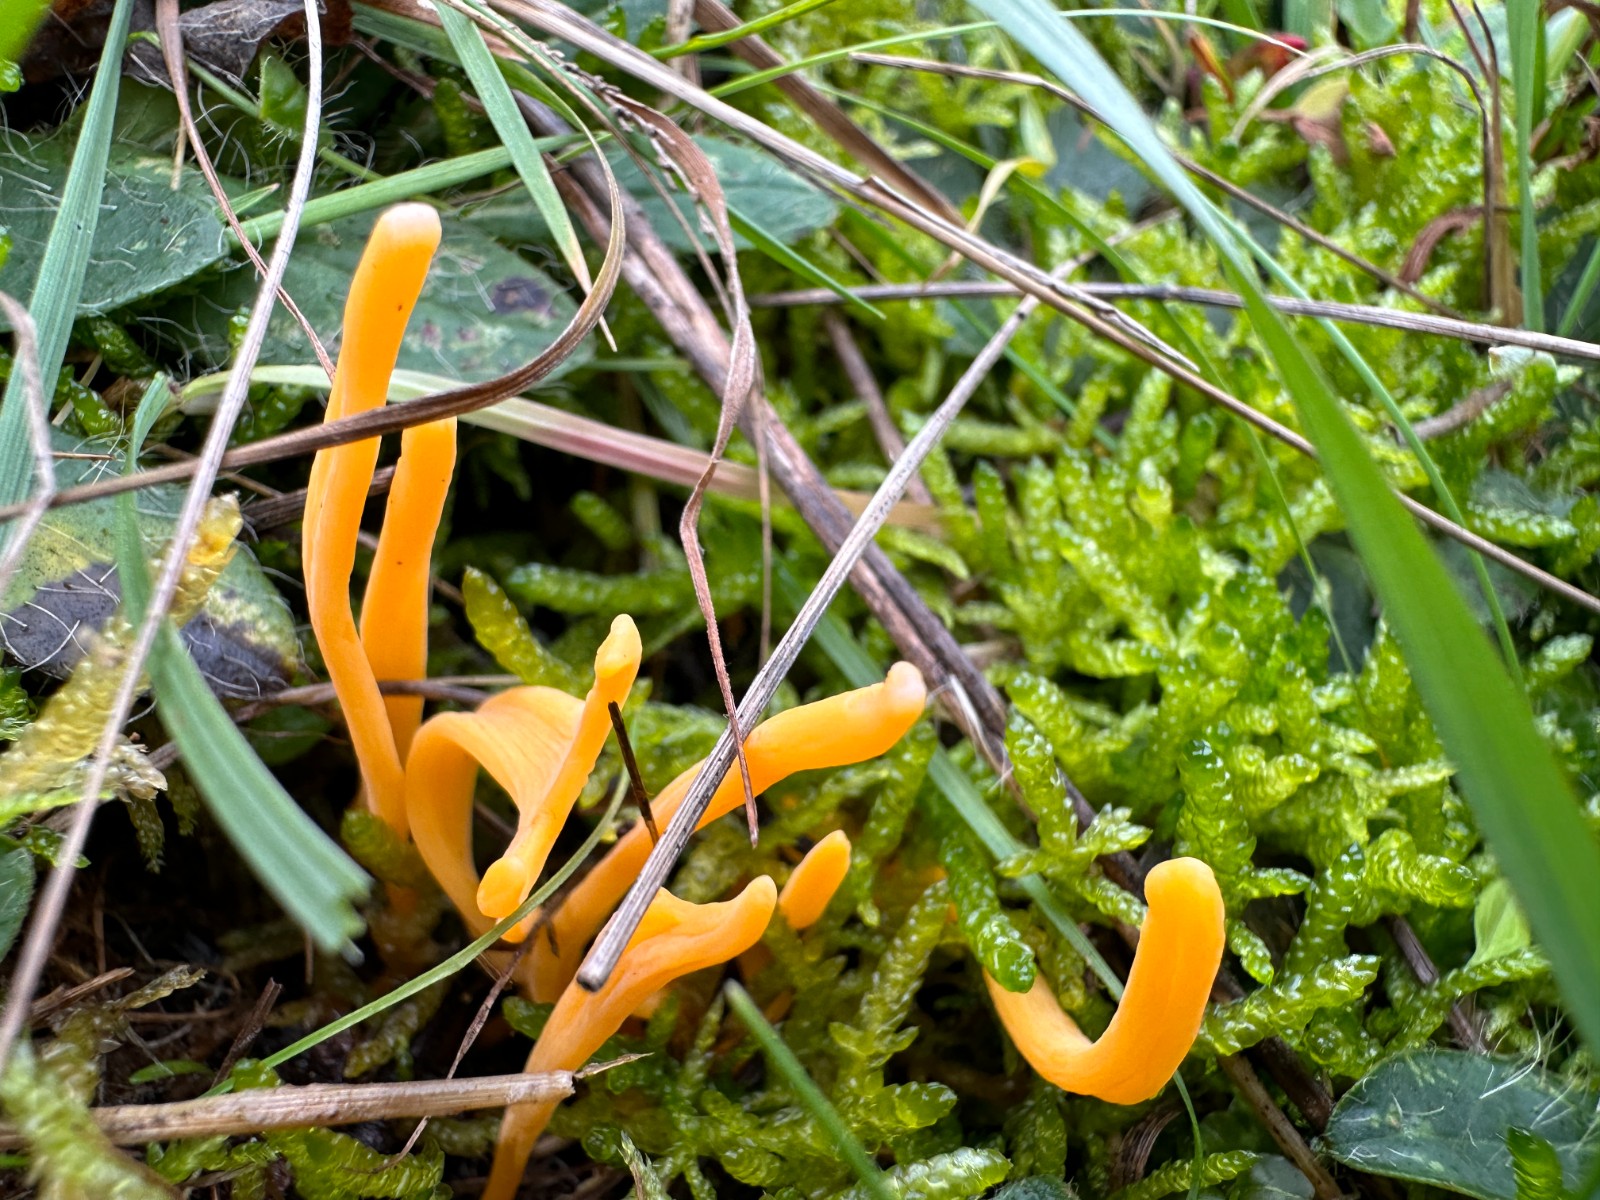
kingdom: Fungi
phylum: Basidiomycota
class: Agaricomycetes
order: Agaricales
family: Clavariaceae
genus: Clavulinopsis
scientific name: Clavulinopsis luteoalba
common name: abrikos-køllesvamp
